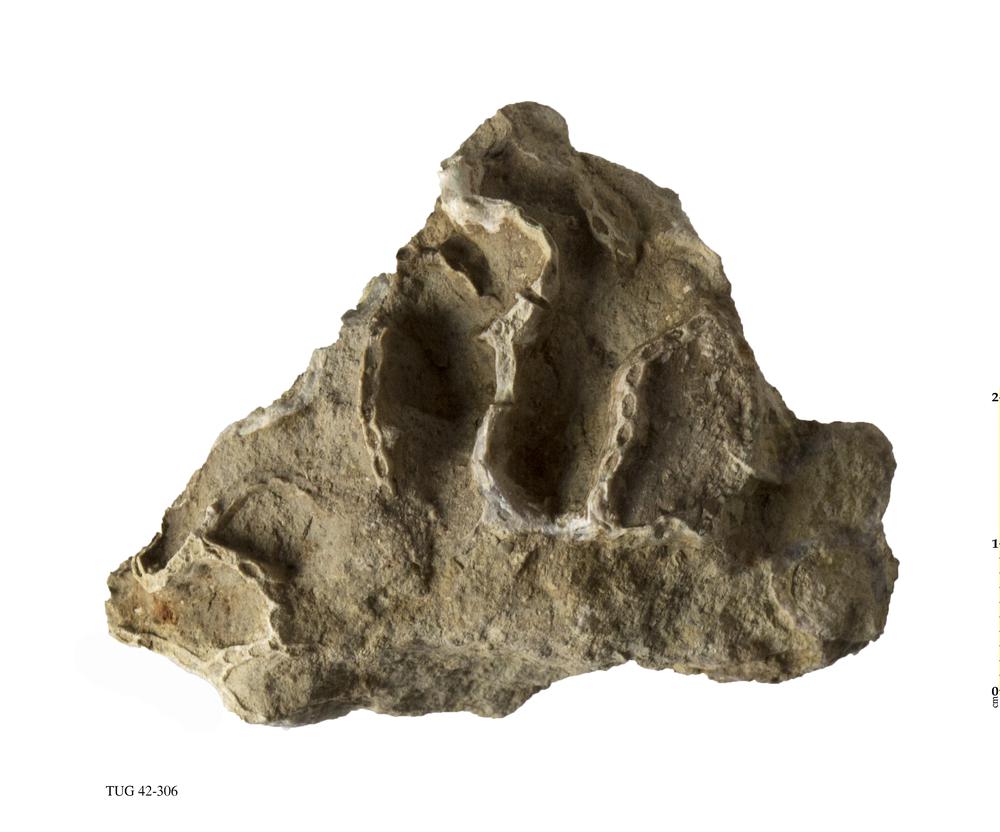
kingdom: Animalia
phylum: Cnidaria
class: Anthozoa
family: Cateniporidae
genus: Catenipora
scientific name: Catenipora
